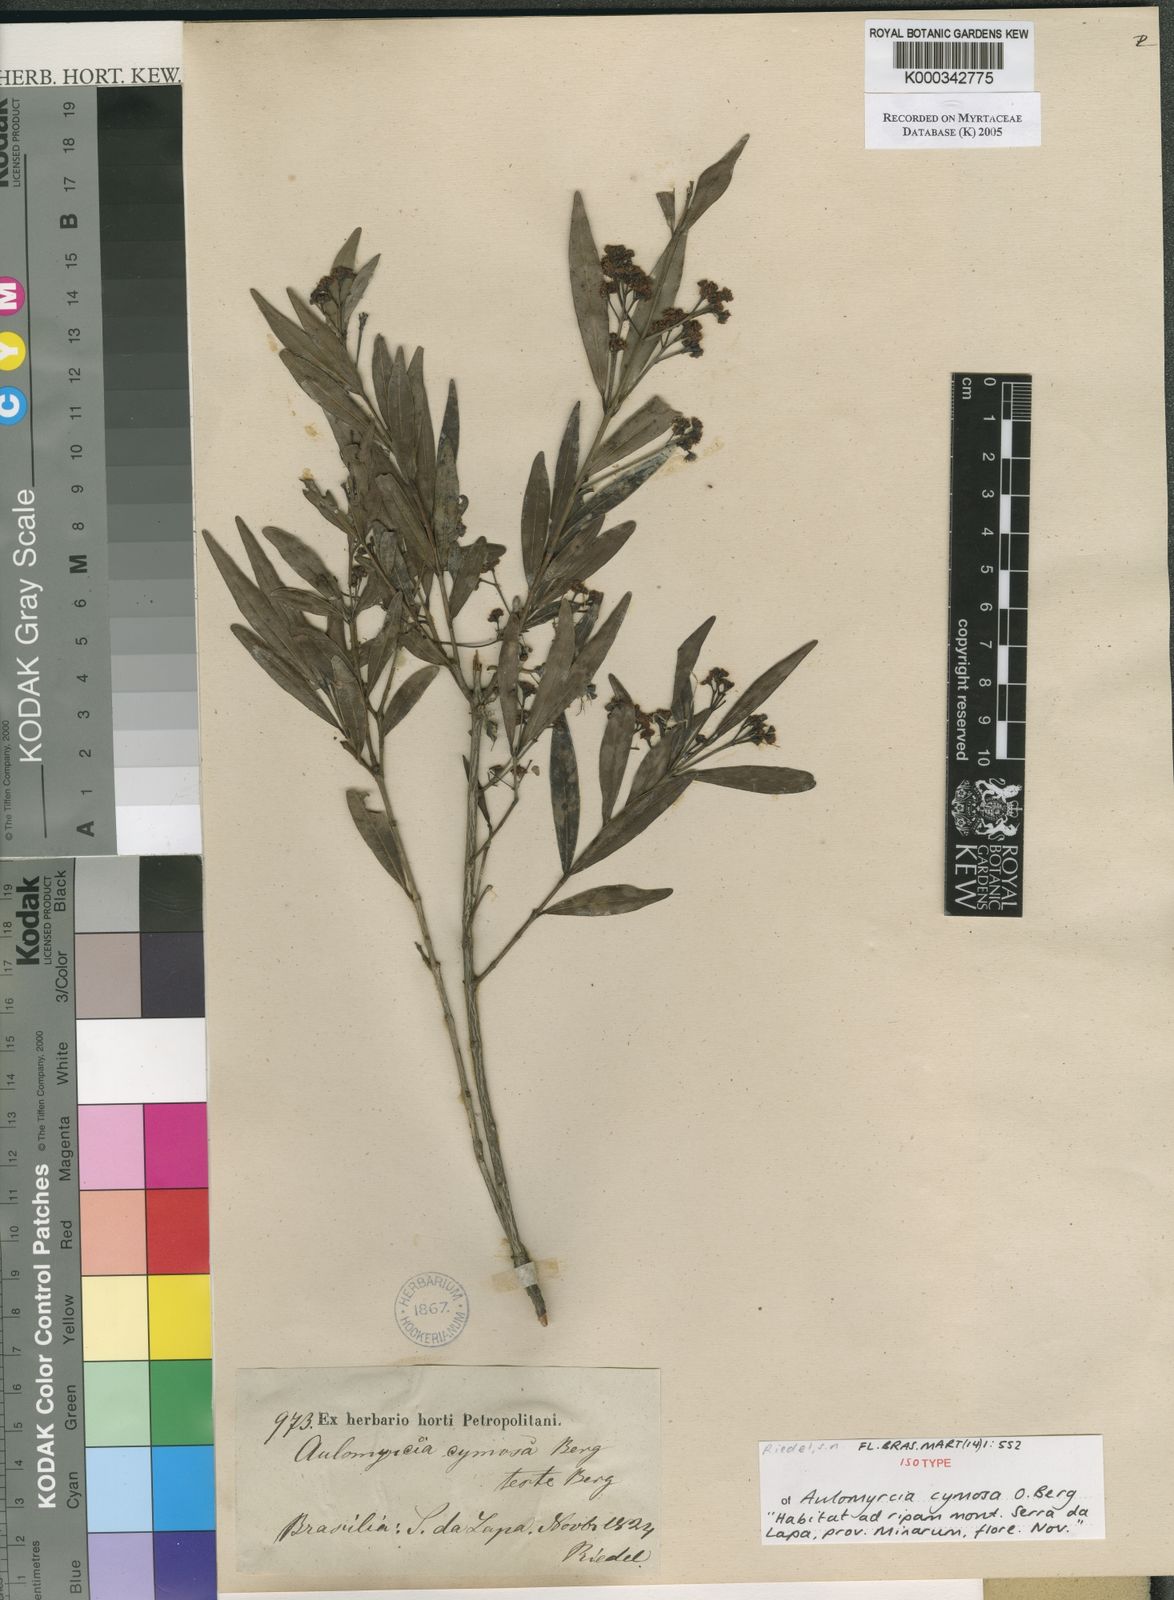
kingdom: Plantae
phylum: Tracheophyta
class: Magnoliopsida
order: Myrtales
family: Myrtaceae
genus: Myrcia
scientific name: Myrcia cymosa
